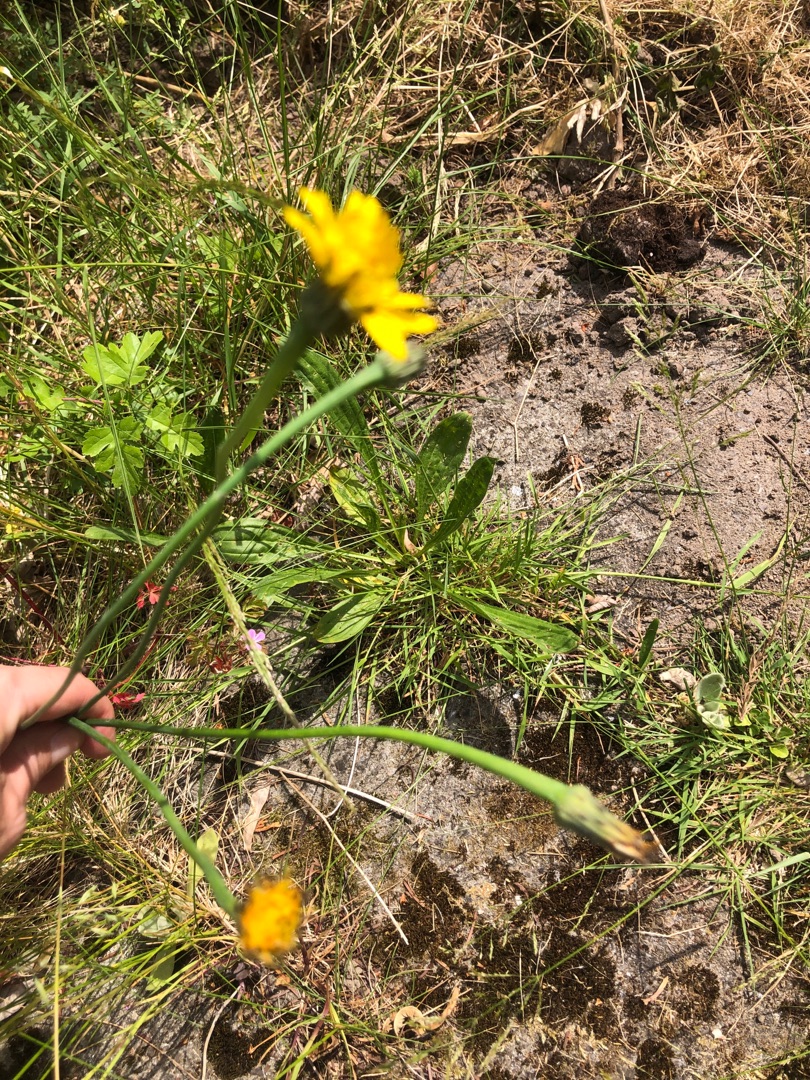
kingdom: Plantae
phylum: Tracheophyta
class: Magnoliopsida
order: Asterales
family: Asteraceae
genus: Hypochaeris
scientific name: Hypochaeris radicata
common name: Almindelig kongepen
